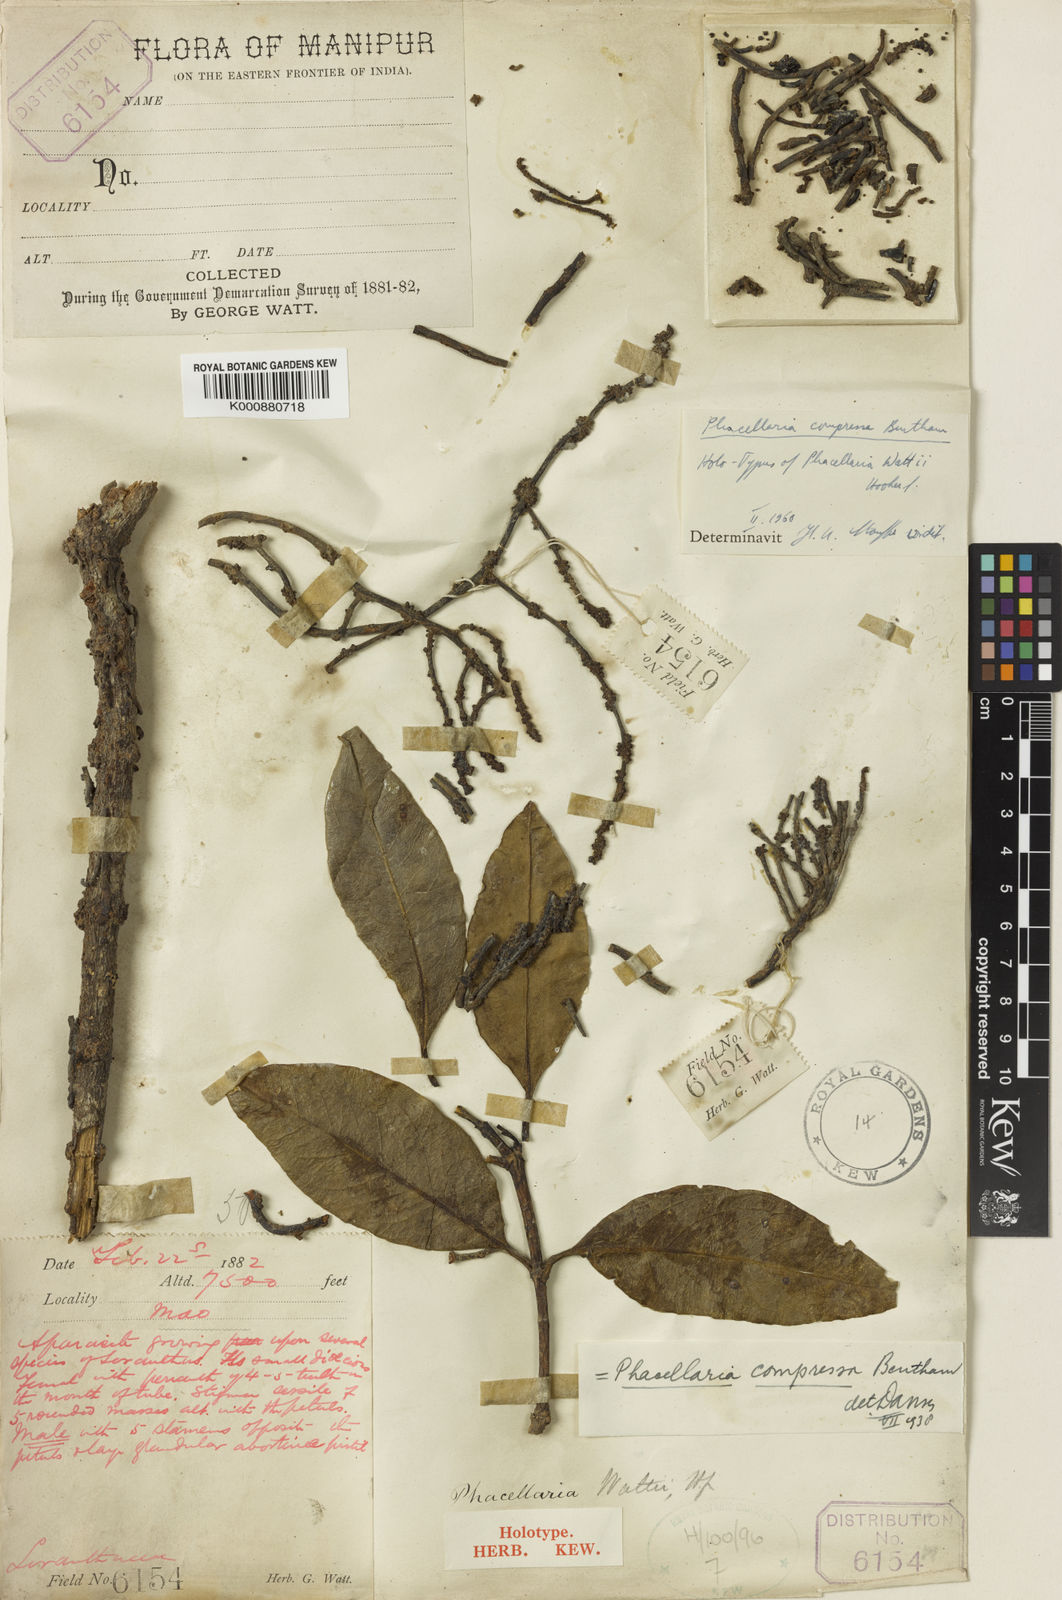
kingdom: Plantae
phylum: Tracheophyta
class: Magnoliopsida
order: Santalales
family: Amphorogynaceae
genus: Phacellaria
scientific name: Phacellaria compressa
